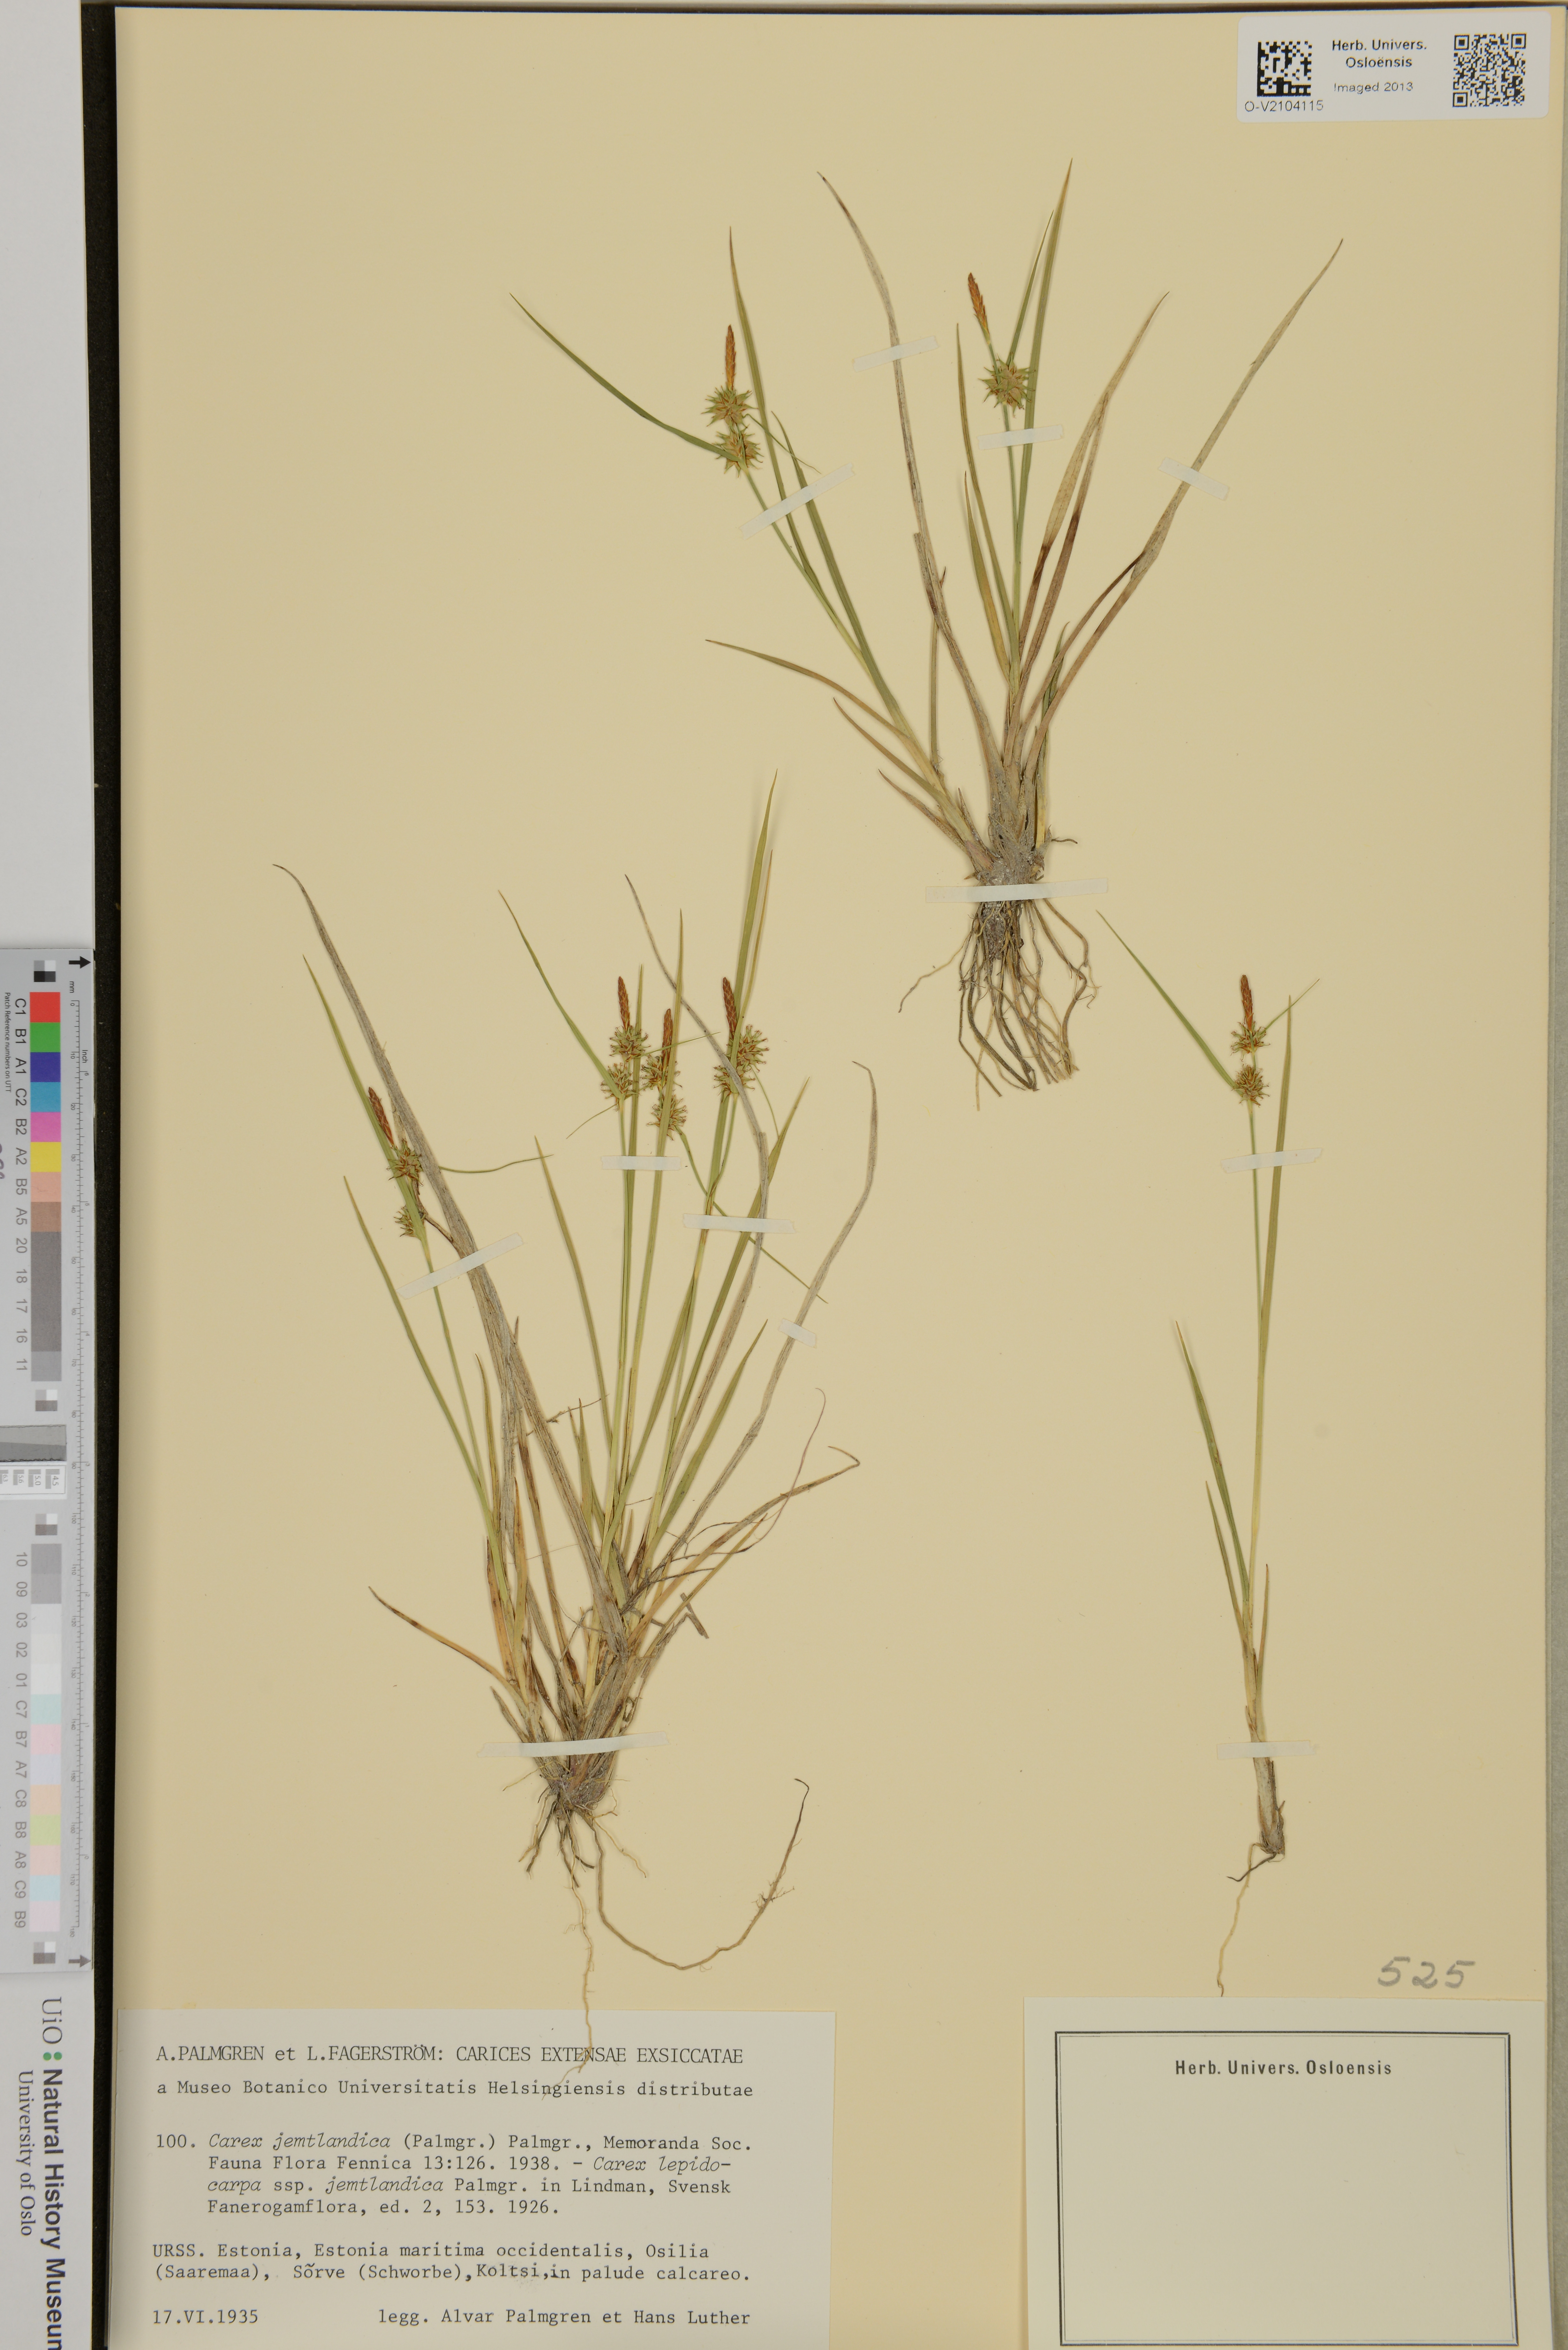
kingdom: Plantae
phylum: Tracheophyta
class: Liliopsida
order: Poales
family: Cyperaceae
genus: Carex
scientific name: Carex lepidocarpa
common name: Long-stalked yellow-sedge
